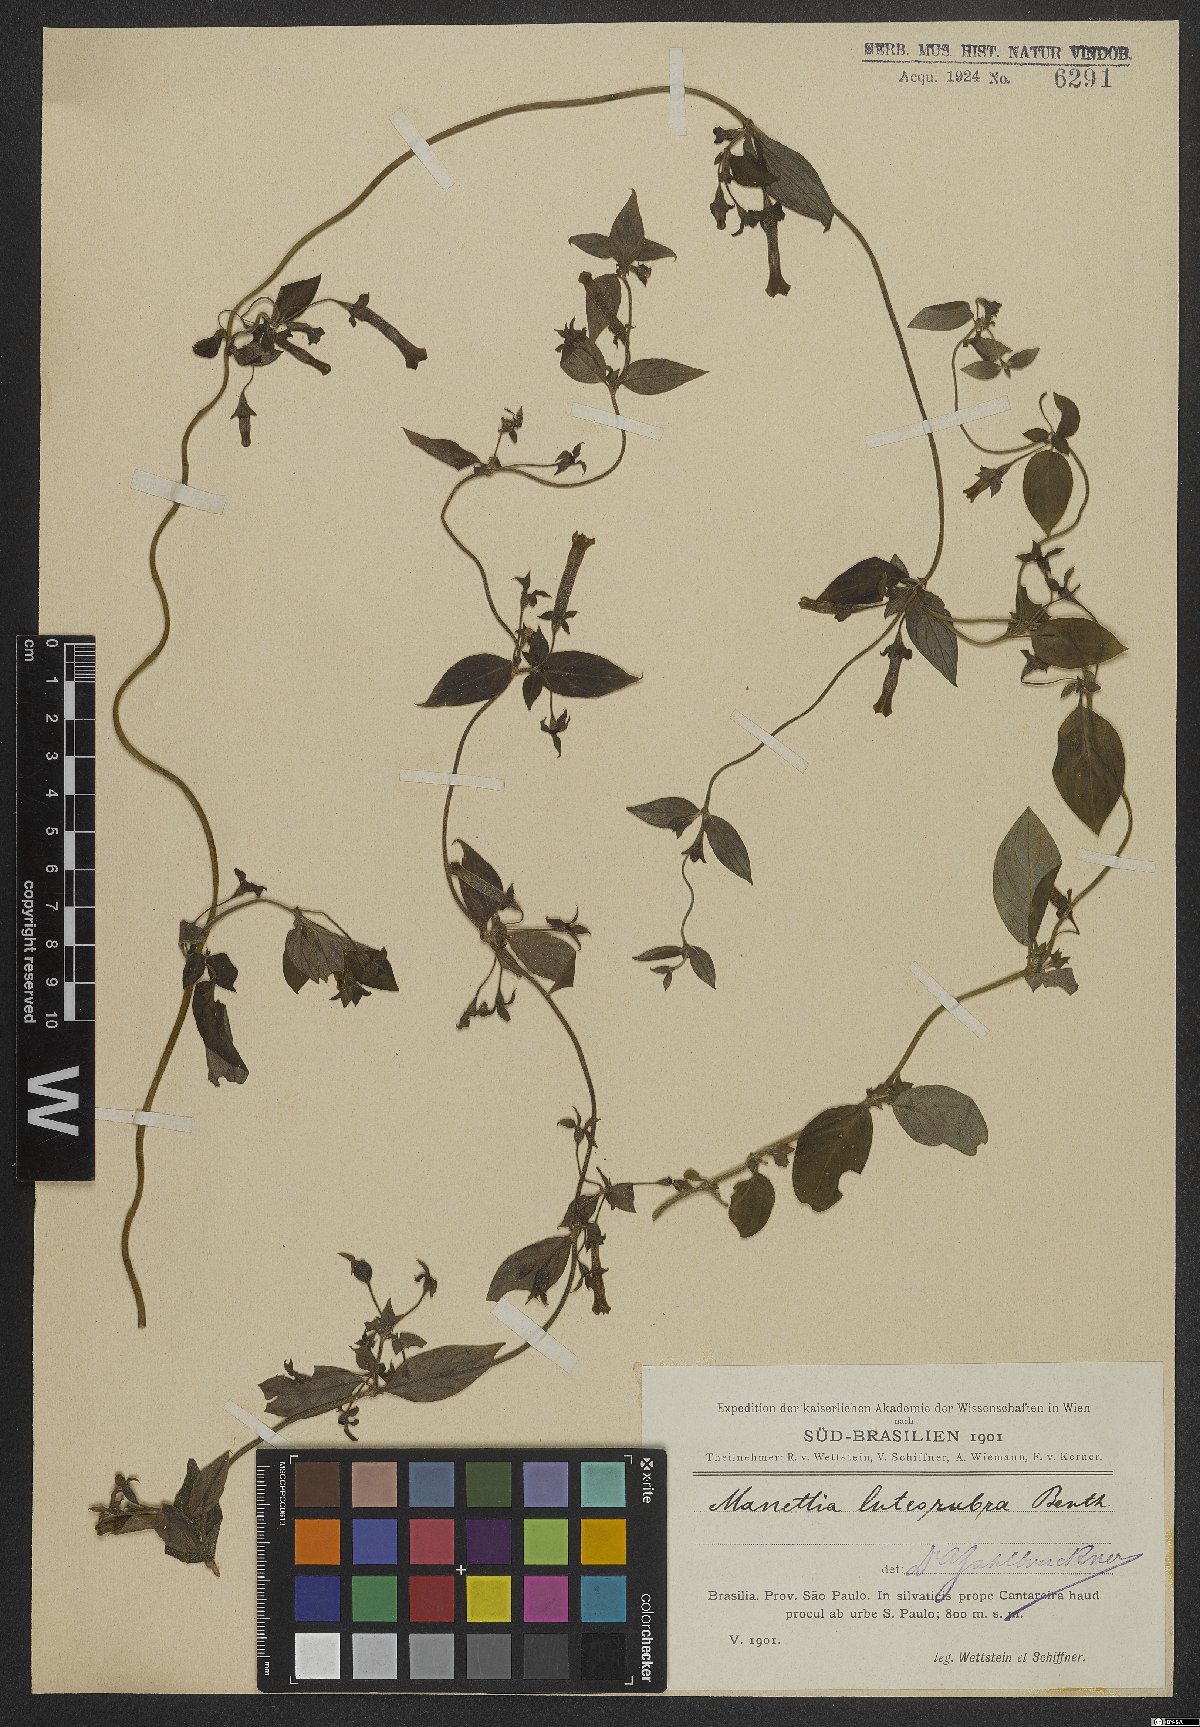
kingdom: Plantae
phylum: Tracheophyta
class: Magnoliopsida
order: Gentianales
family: Rubiaceae
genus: Manettia
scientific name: Manettia luteorubra
